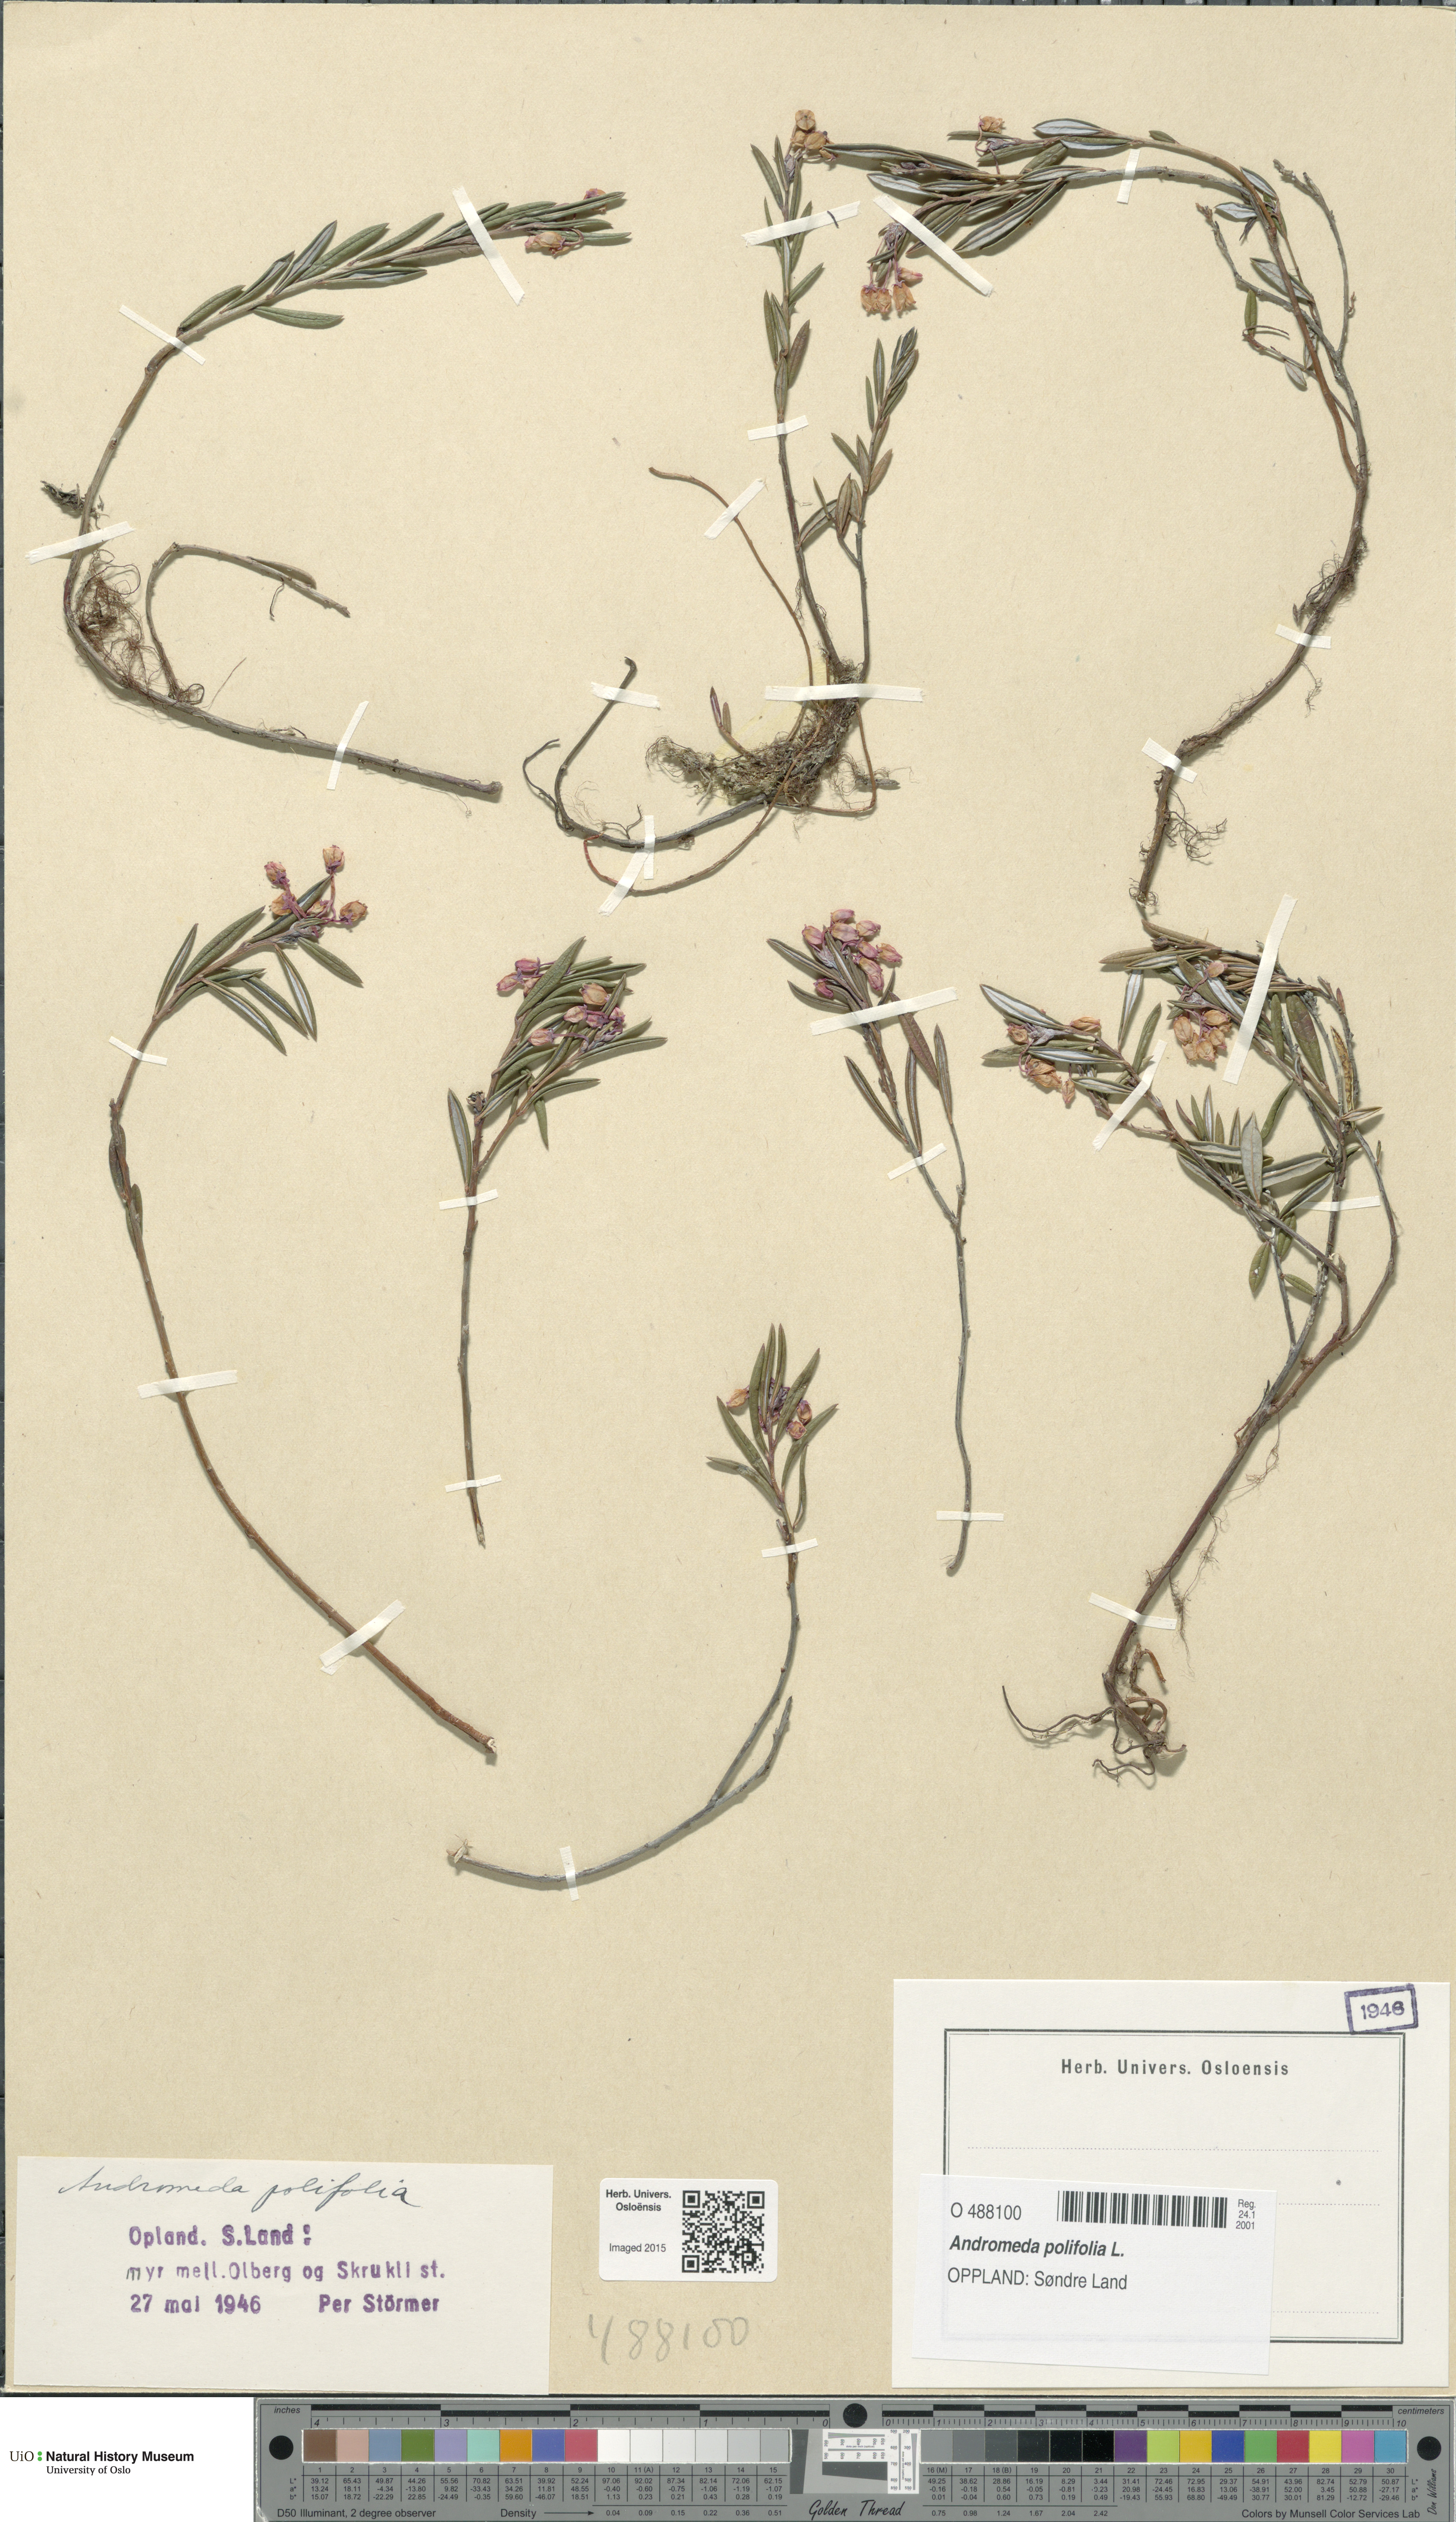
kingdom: Plantae
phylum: Tracheophyta
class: Magnoliopsida
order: Ericales
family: Ericaceae
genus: Andromeda
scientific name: Andromeda polifolia
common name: Bog-rosemary
